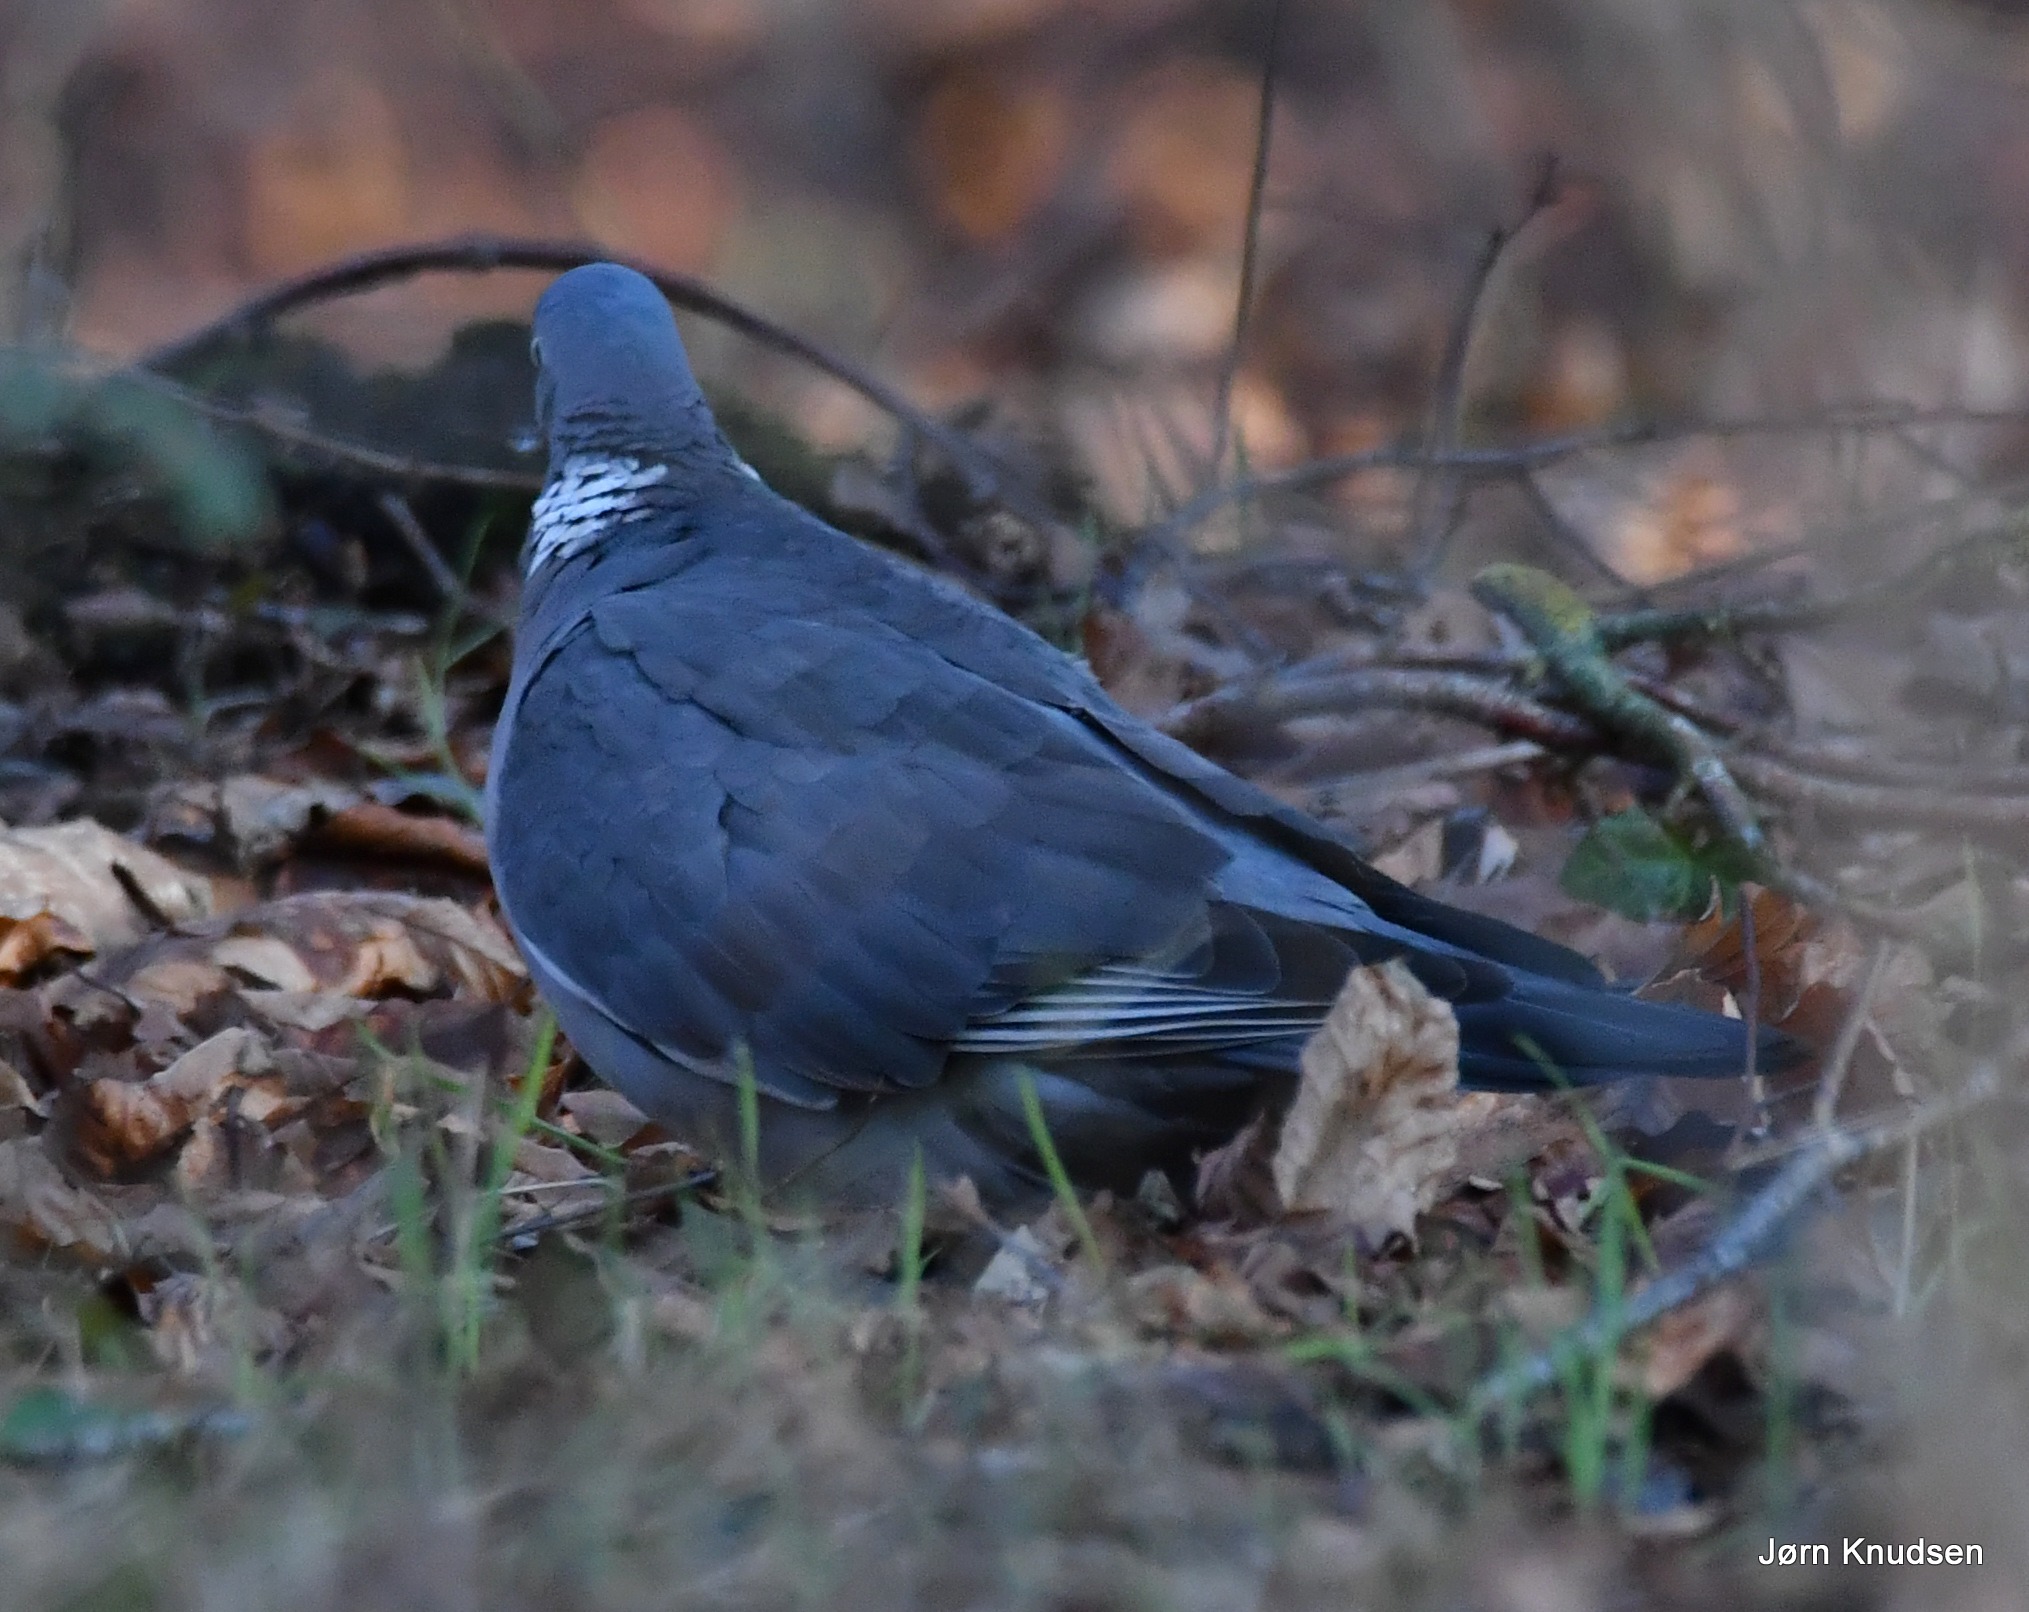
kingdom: Animalia
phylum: Chordata
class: Aves
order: Columbiformes
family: Columbidae
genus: Columba
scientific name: Columba palumbus
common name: Ringdue
